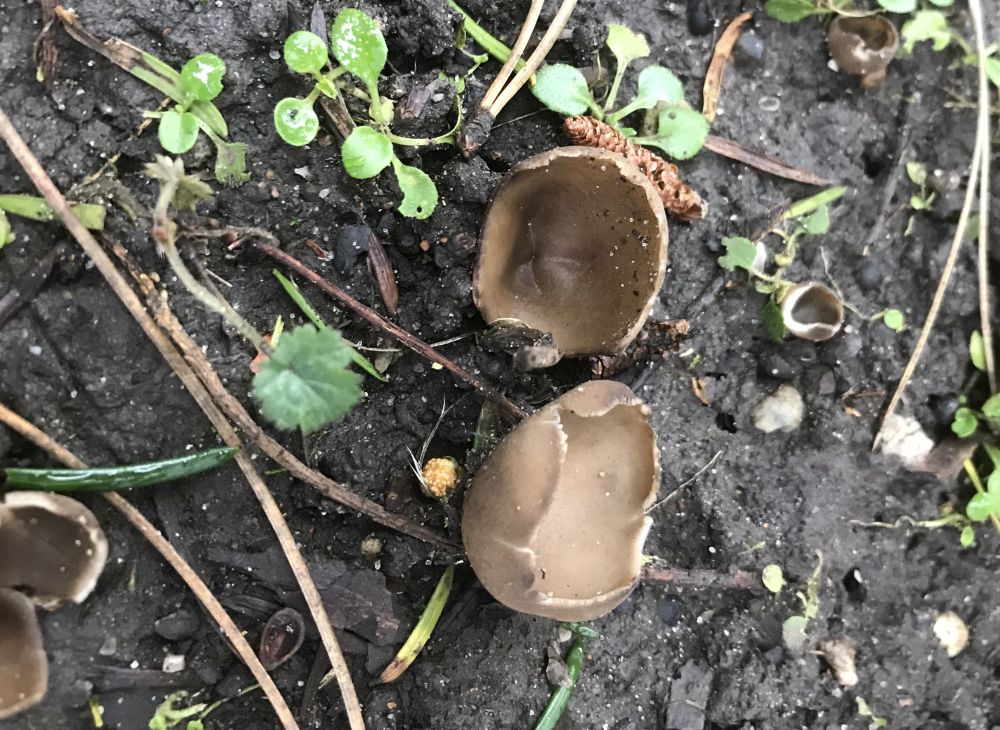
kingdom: Fungi
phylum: Ascomycota
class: Pezizomycetes
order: Pezizales
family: Helvellaceae
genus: Dissingia
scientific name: Dissingia leucomelaena
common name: sorthvid foldhat
